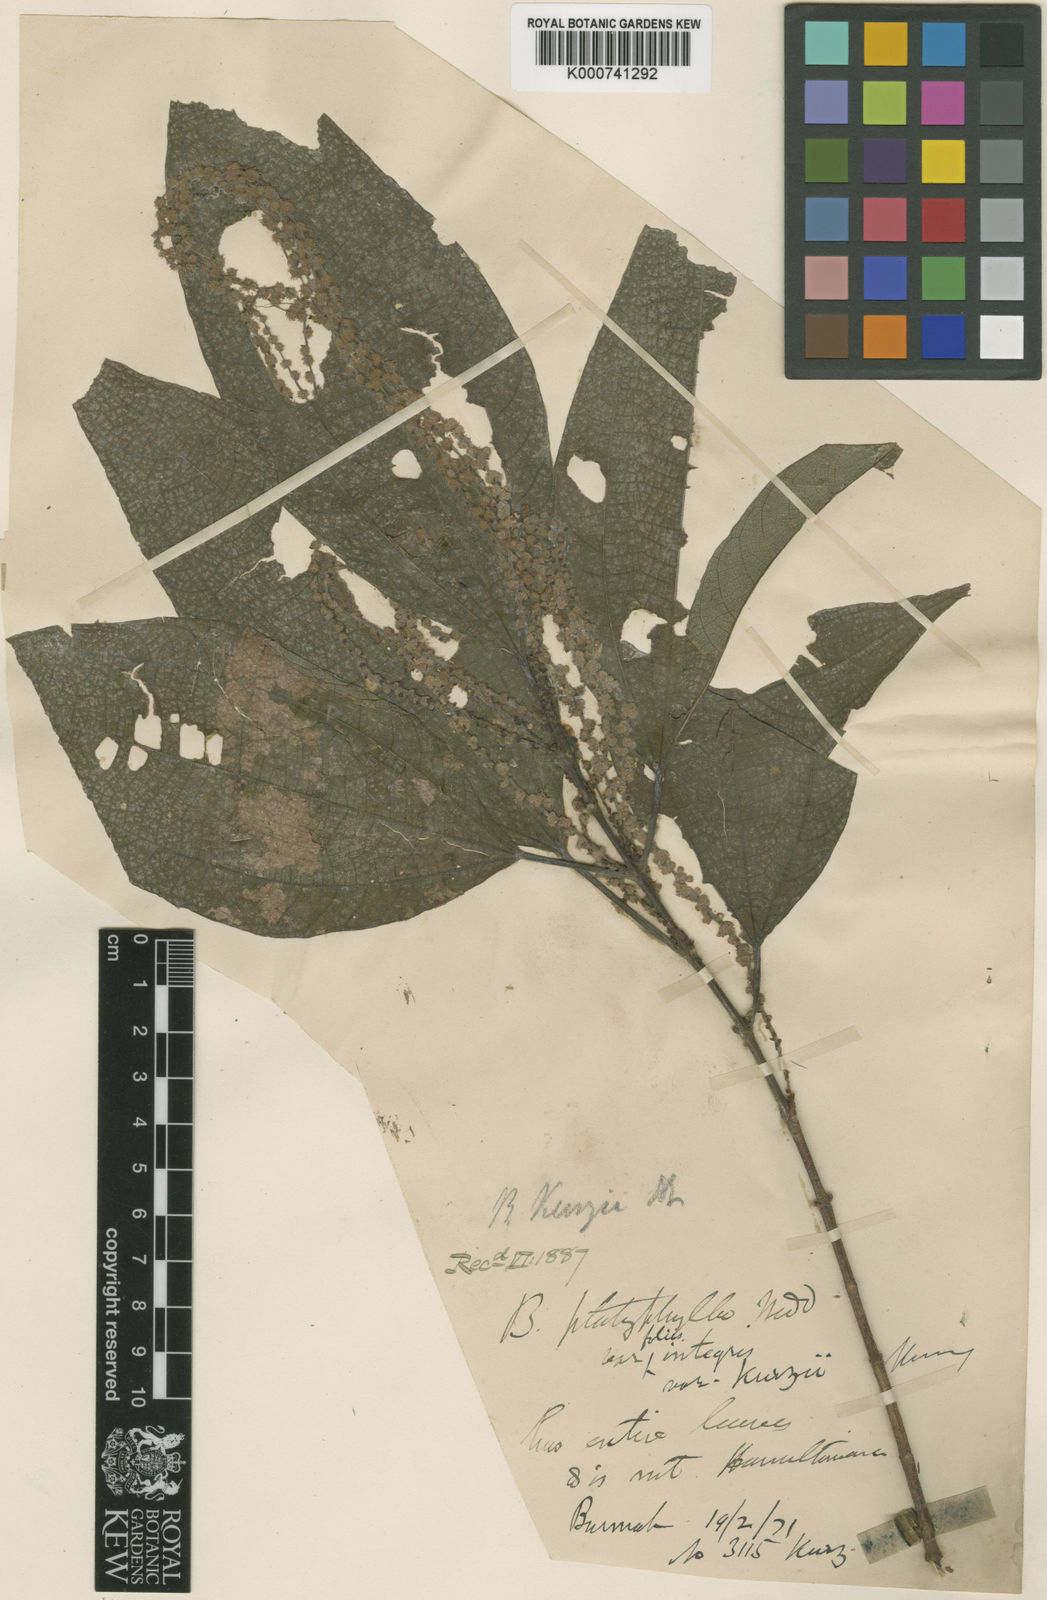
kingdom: Plantae
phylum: Tracheophyta
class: Magnoliopsida
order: Rosales
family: Urticaceae
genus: Boehmeria
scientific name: Boehmeria kurzii
